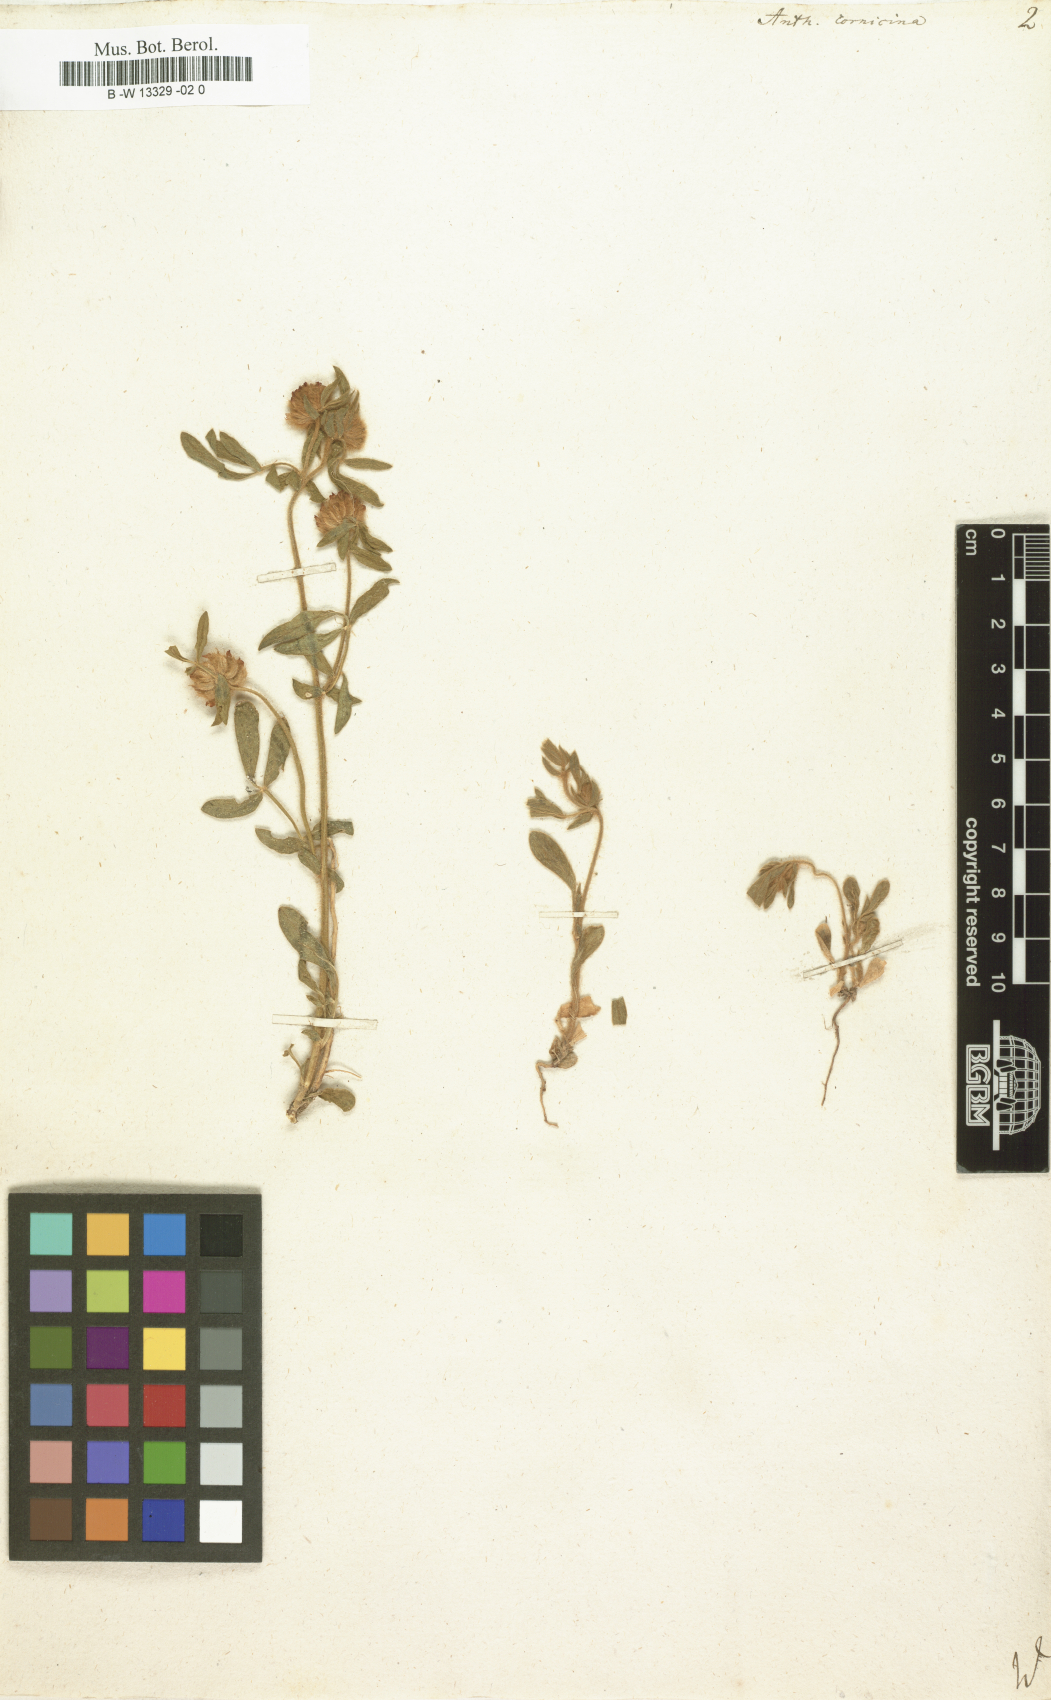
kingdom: Plantae
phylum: Tracheophyta
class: Magnoliopsida
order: Fabales
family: Fabaceae
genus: Anthyllis
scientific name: Anthyllis cornicina
